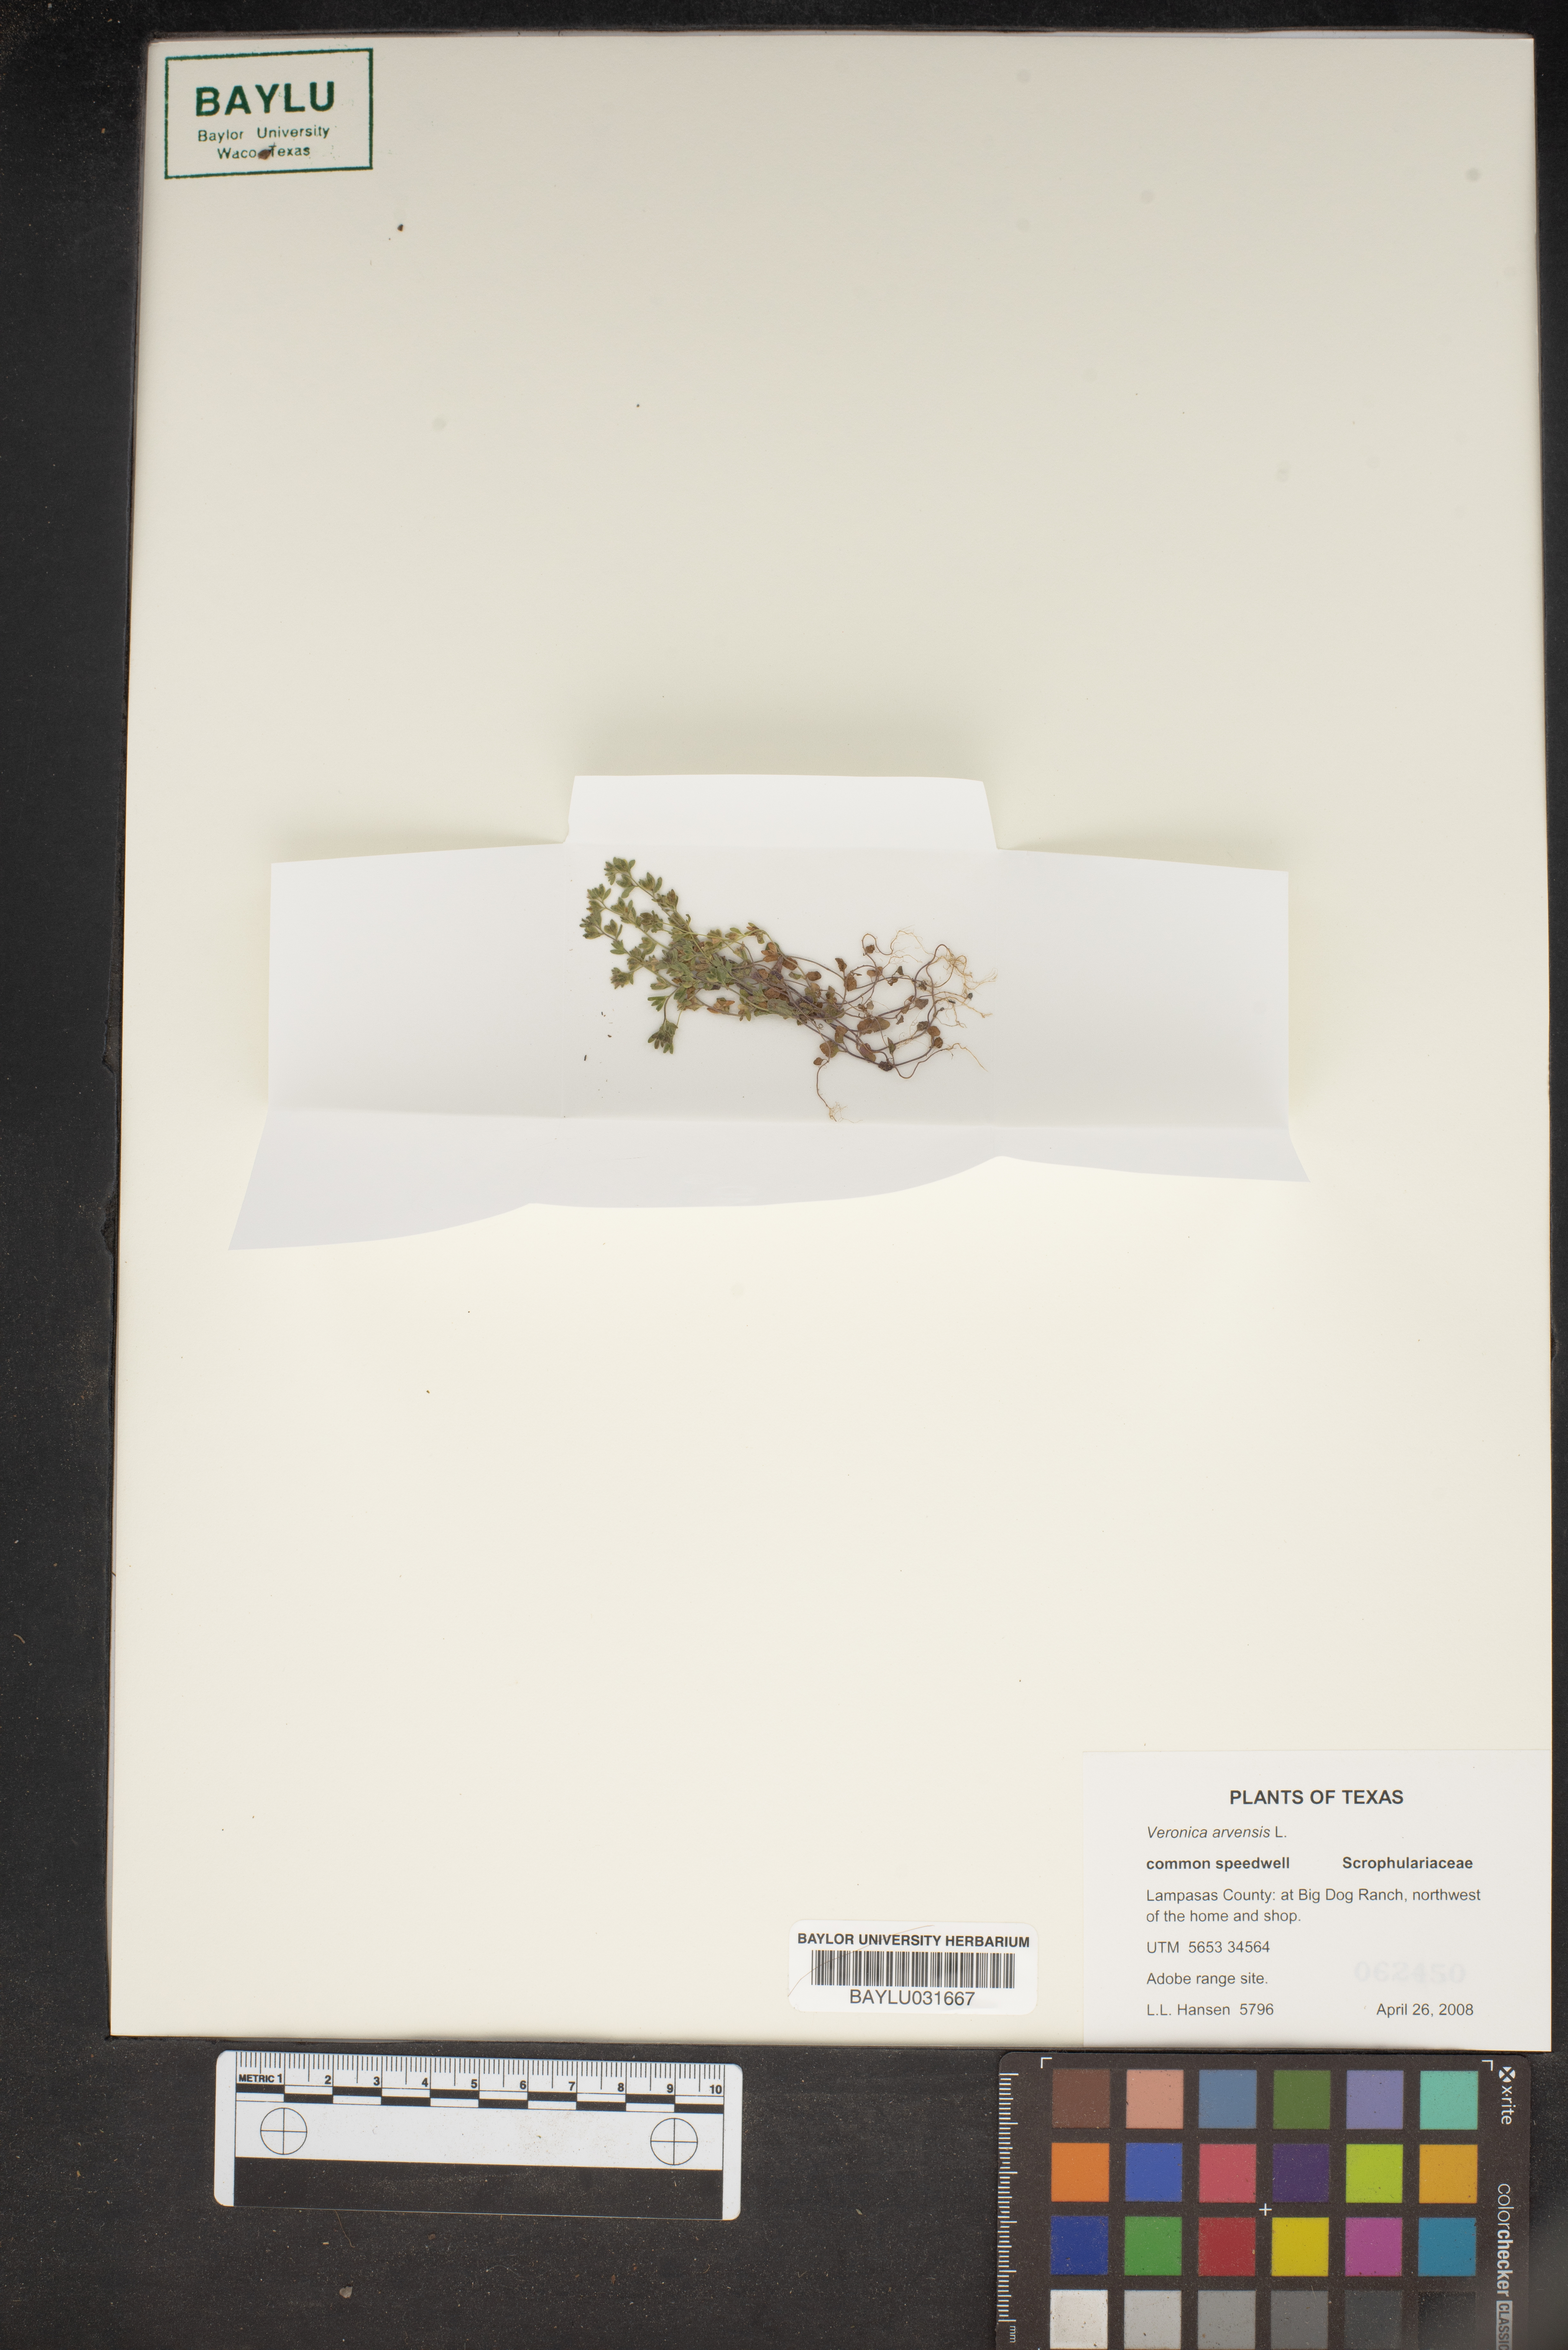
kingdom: Plantae
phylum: Tracheophyta
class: Magnoliopsida
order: Lamiales
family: Plantaginaceae
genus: Veronica
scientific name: Veronica arvensis
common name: Corn speedwell
